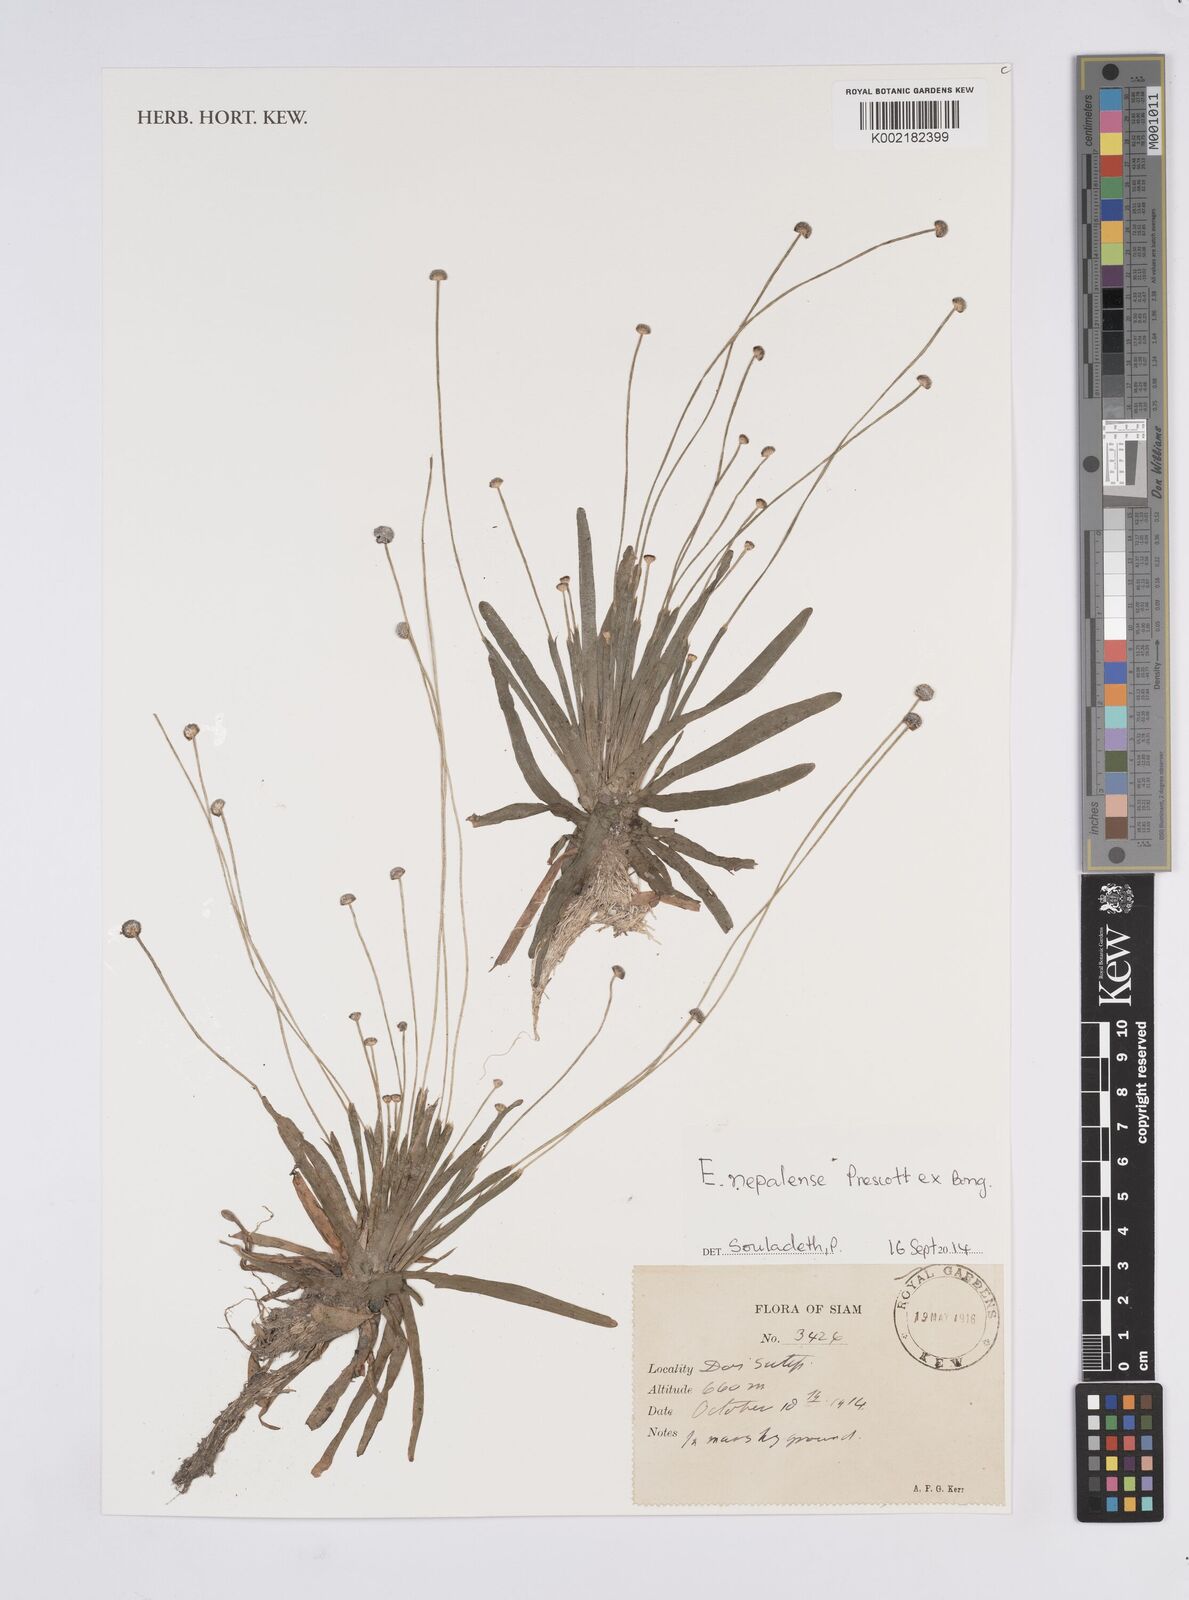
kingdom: Plantae
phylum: Tracheophyta
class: Liliopsida
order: Poales
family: Eriocaulaceae
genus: Eriocaulon
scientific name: Eriocaulon nepalense
